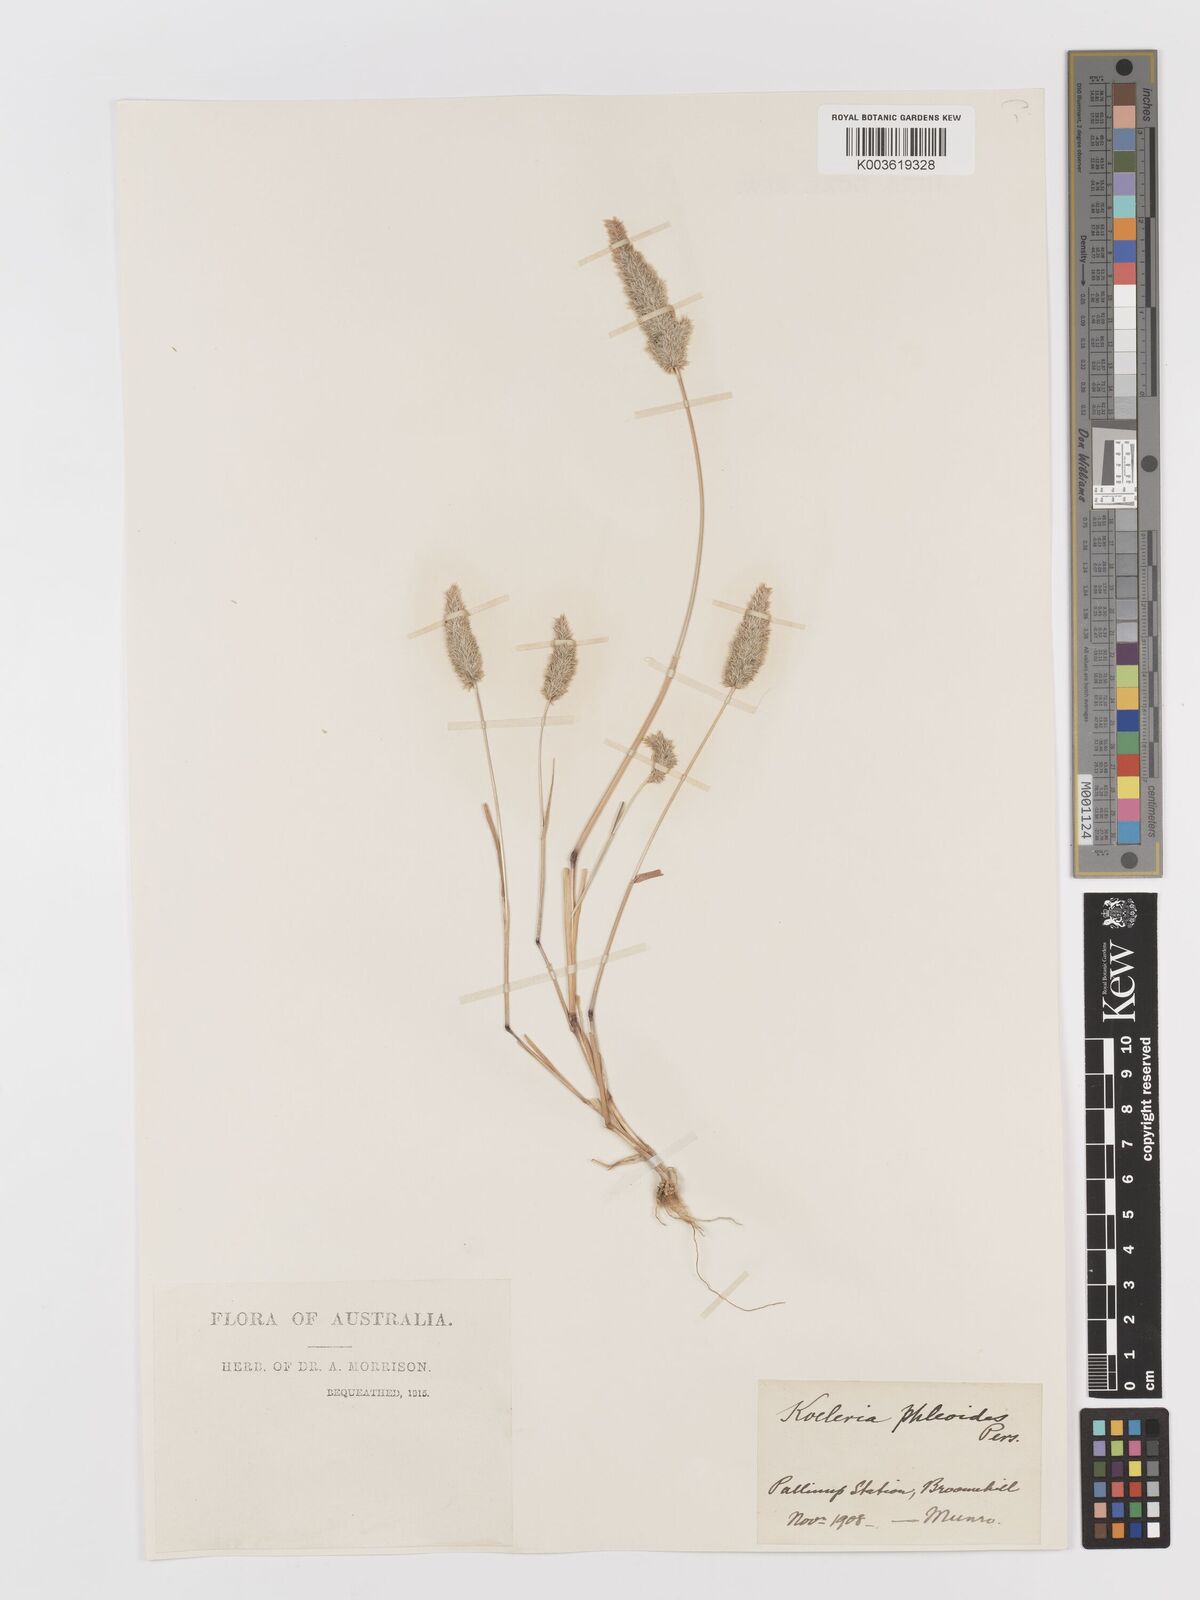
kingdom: Plantae
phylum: Tracheophyta
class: Liliopsida
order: Poales
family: Poaceae
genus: Rostraria
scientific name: Rostraria cristata
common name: Mediterranean hair-grass
